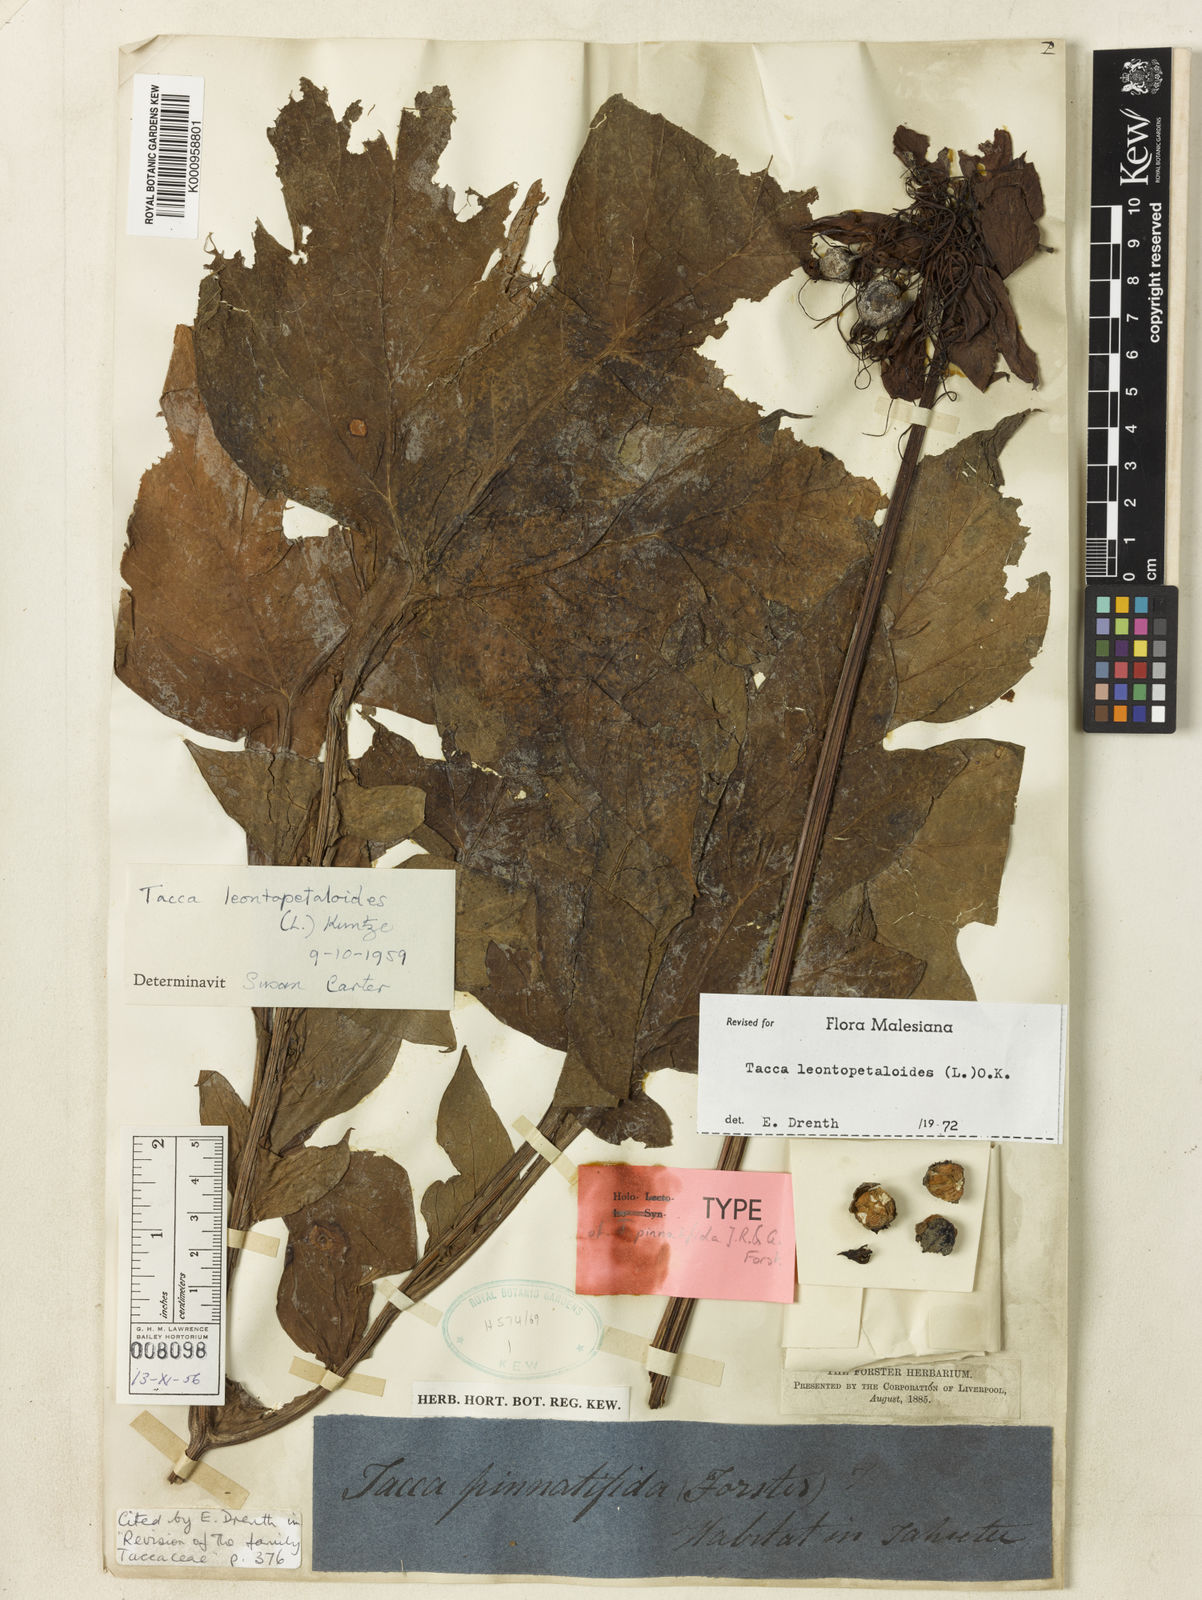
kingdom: Plantae
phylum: Tracheophyta
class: Liliopsida
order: Dioscoreales
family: Dioscoreaceae
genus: Tacca
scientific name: Tacca leontopetaloides
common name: Arrowroot
